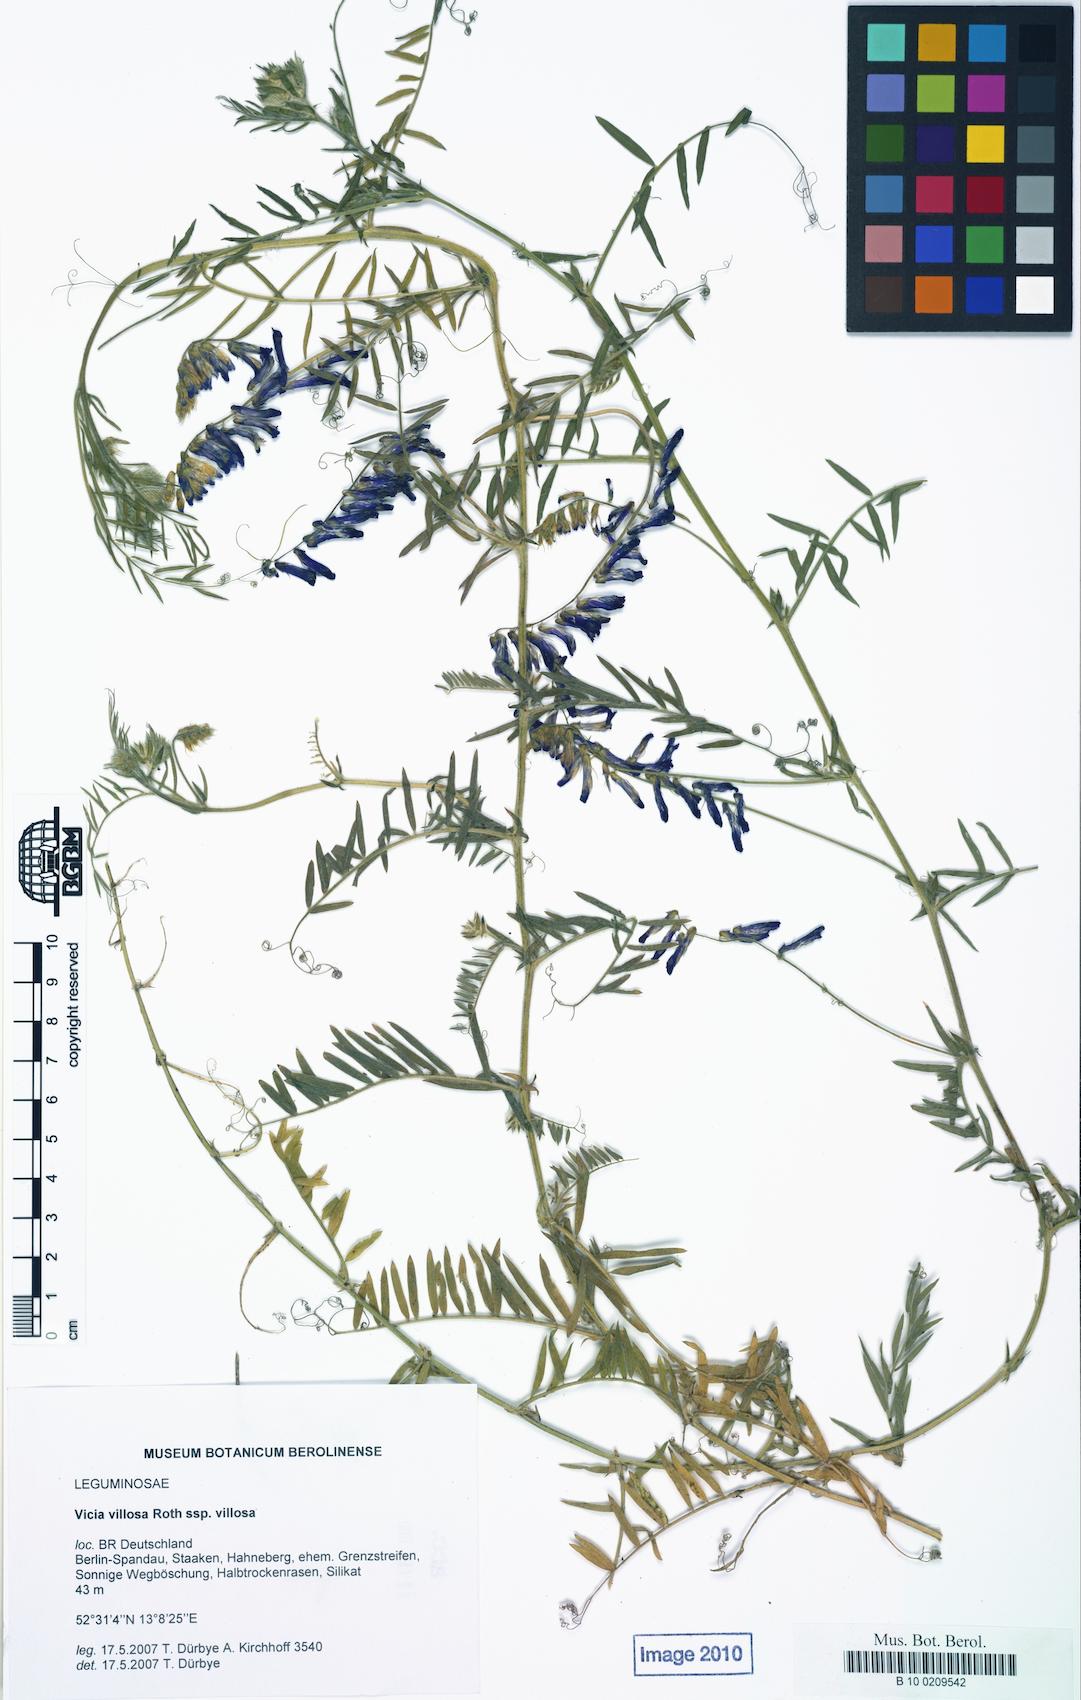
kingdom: Plantae
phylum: Tracheophyta
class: Magnoliopsida
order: Fabales
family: Fabaceae
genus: Vicia
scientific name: Vicia villosa
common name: Fodder vetch
